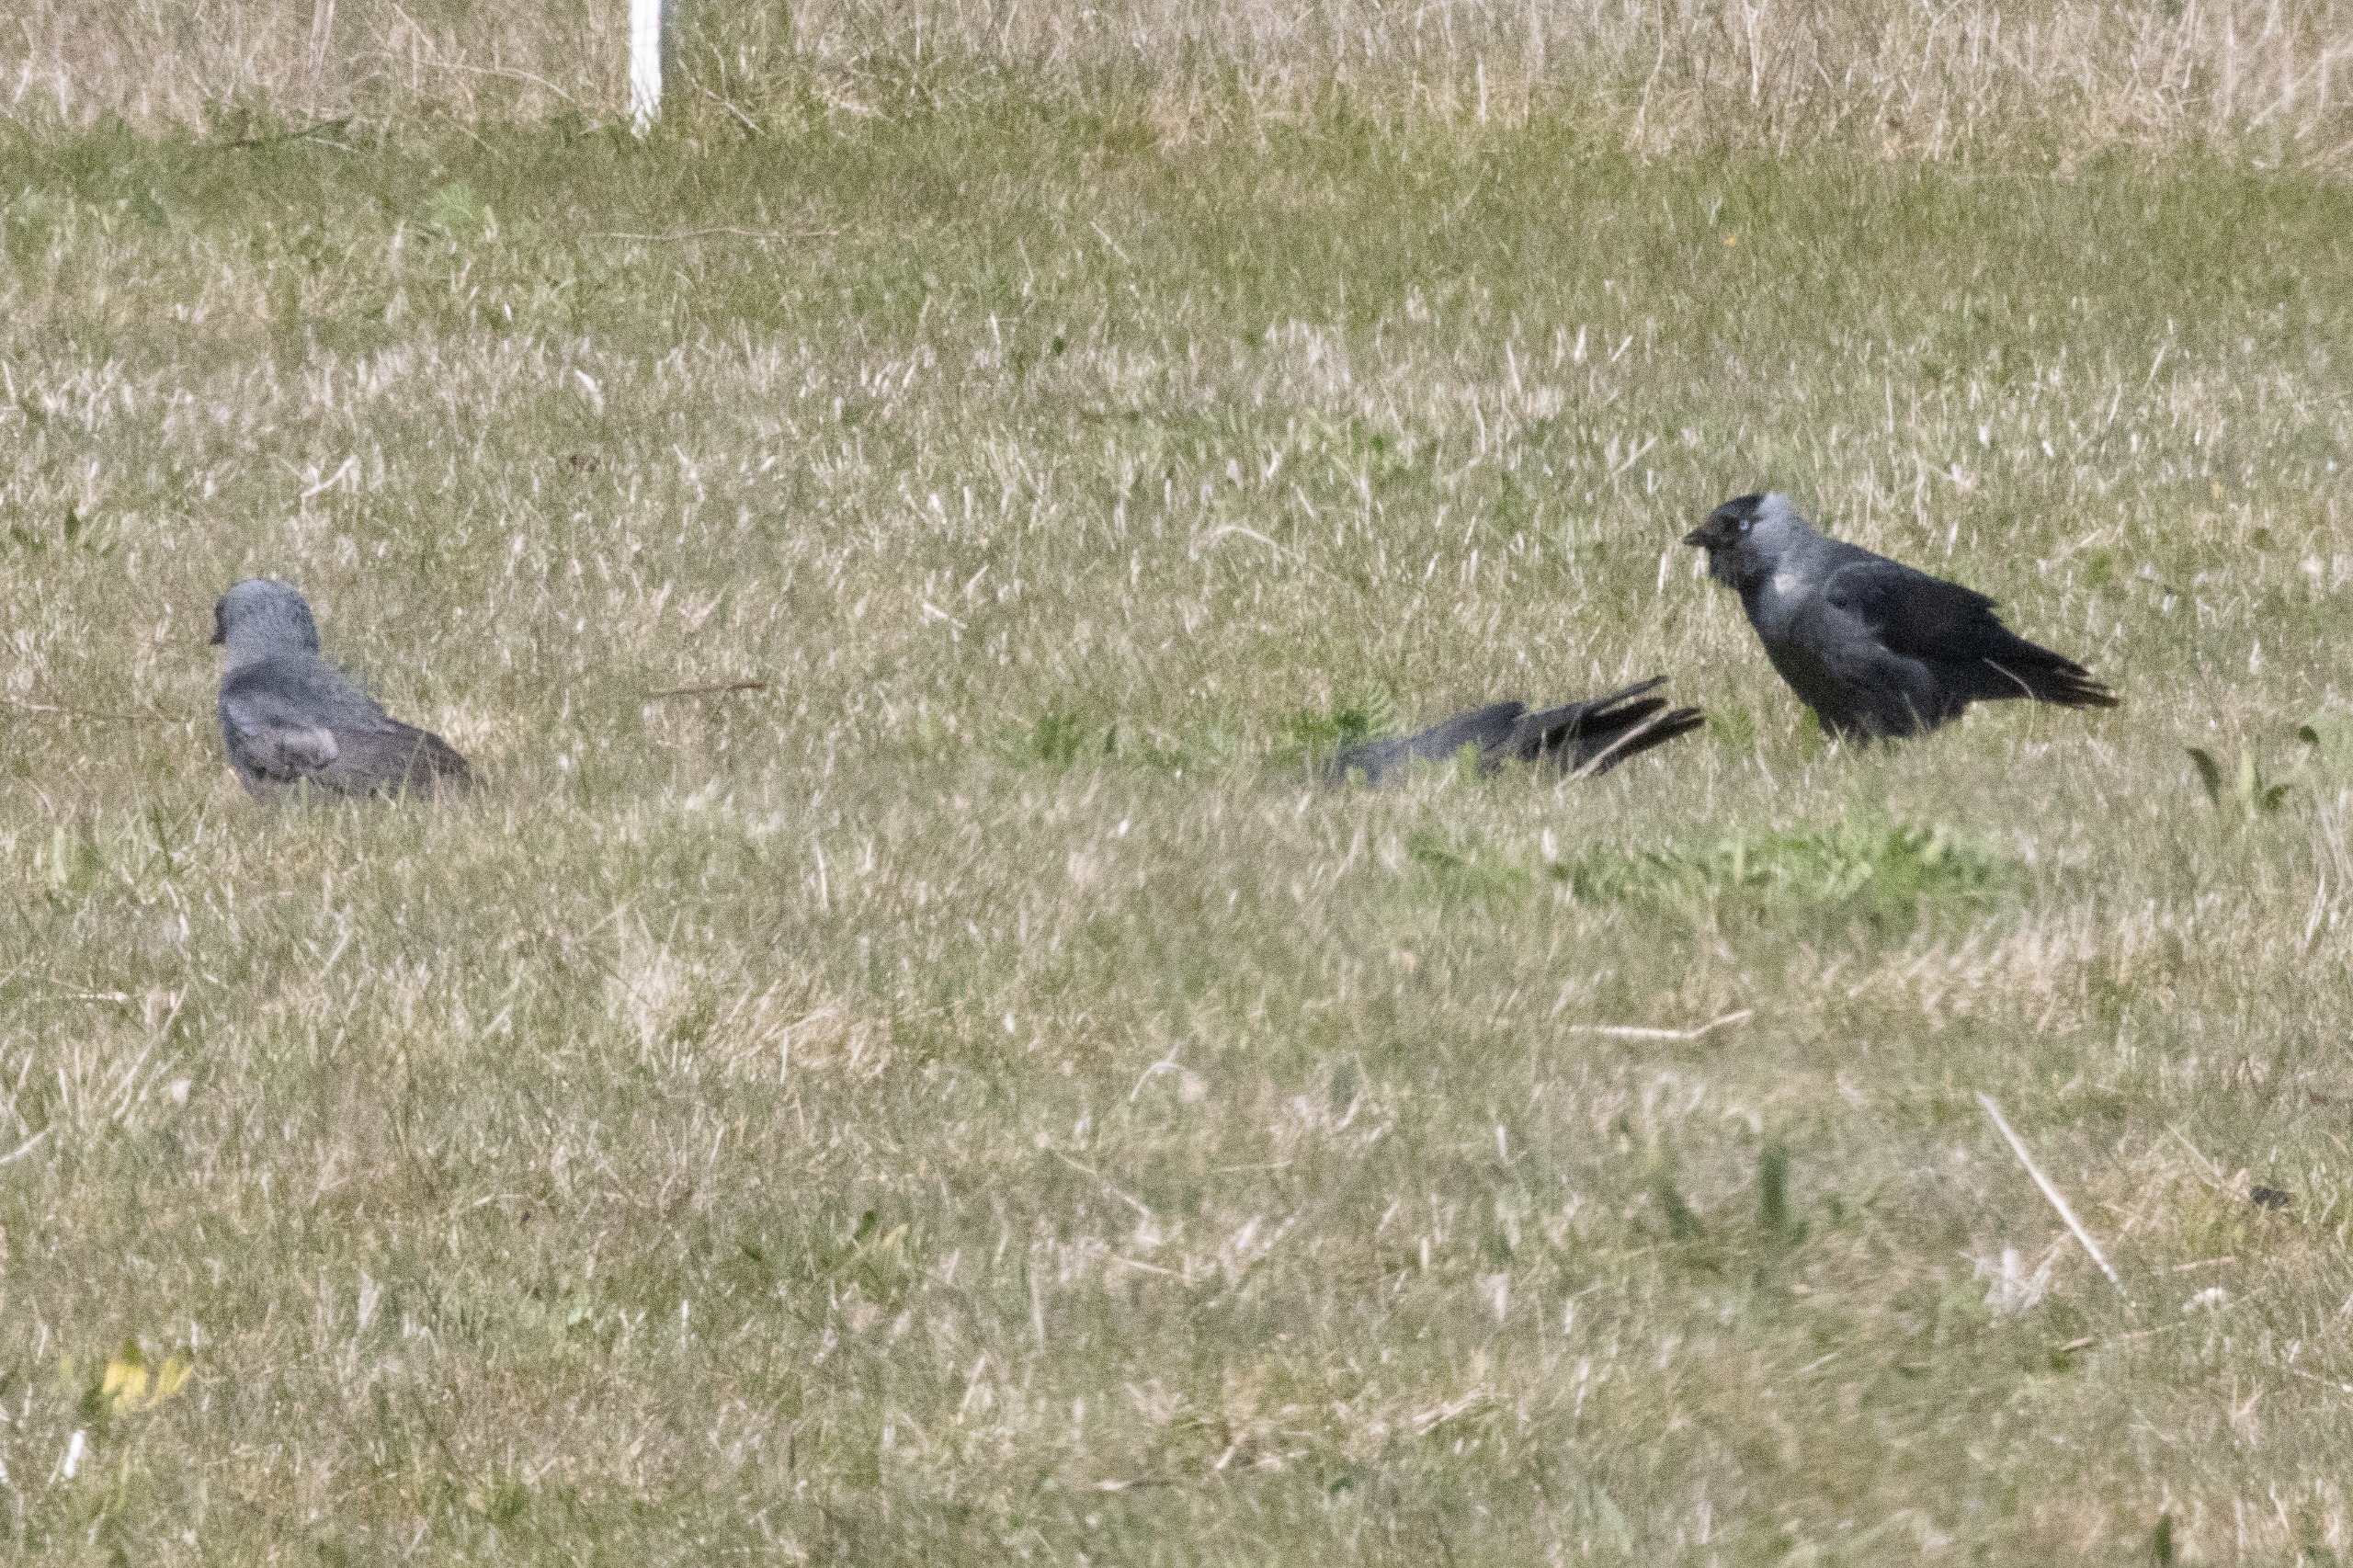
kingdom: Animalia
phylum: Chordata
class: Aves
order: Passeriformes
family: Corvidae
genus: Coloeus
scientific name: Coloeus monedula
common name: Allike
